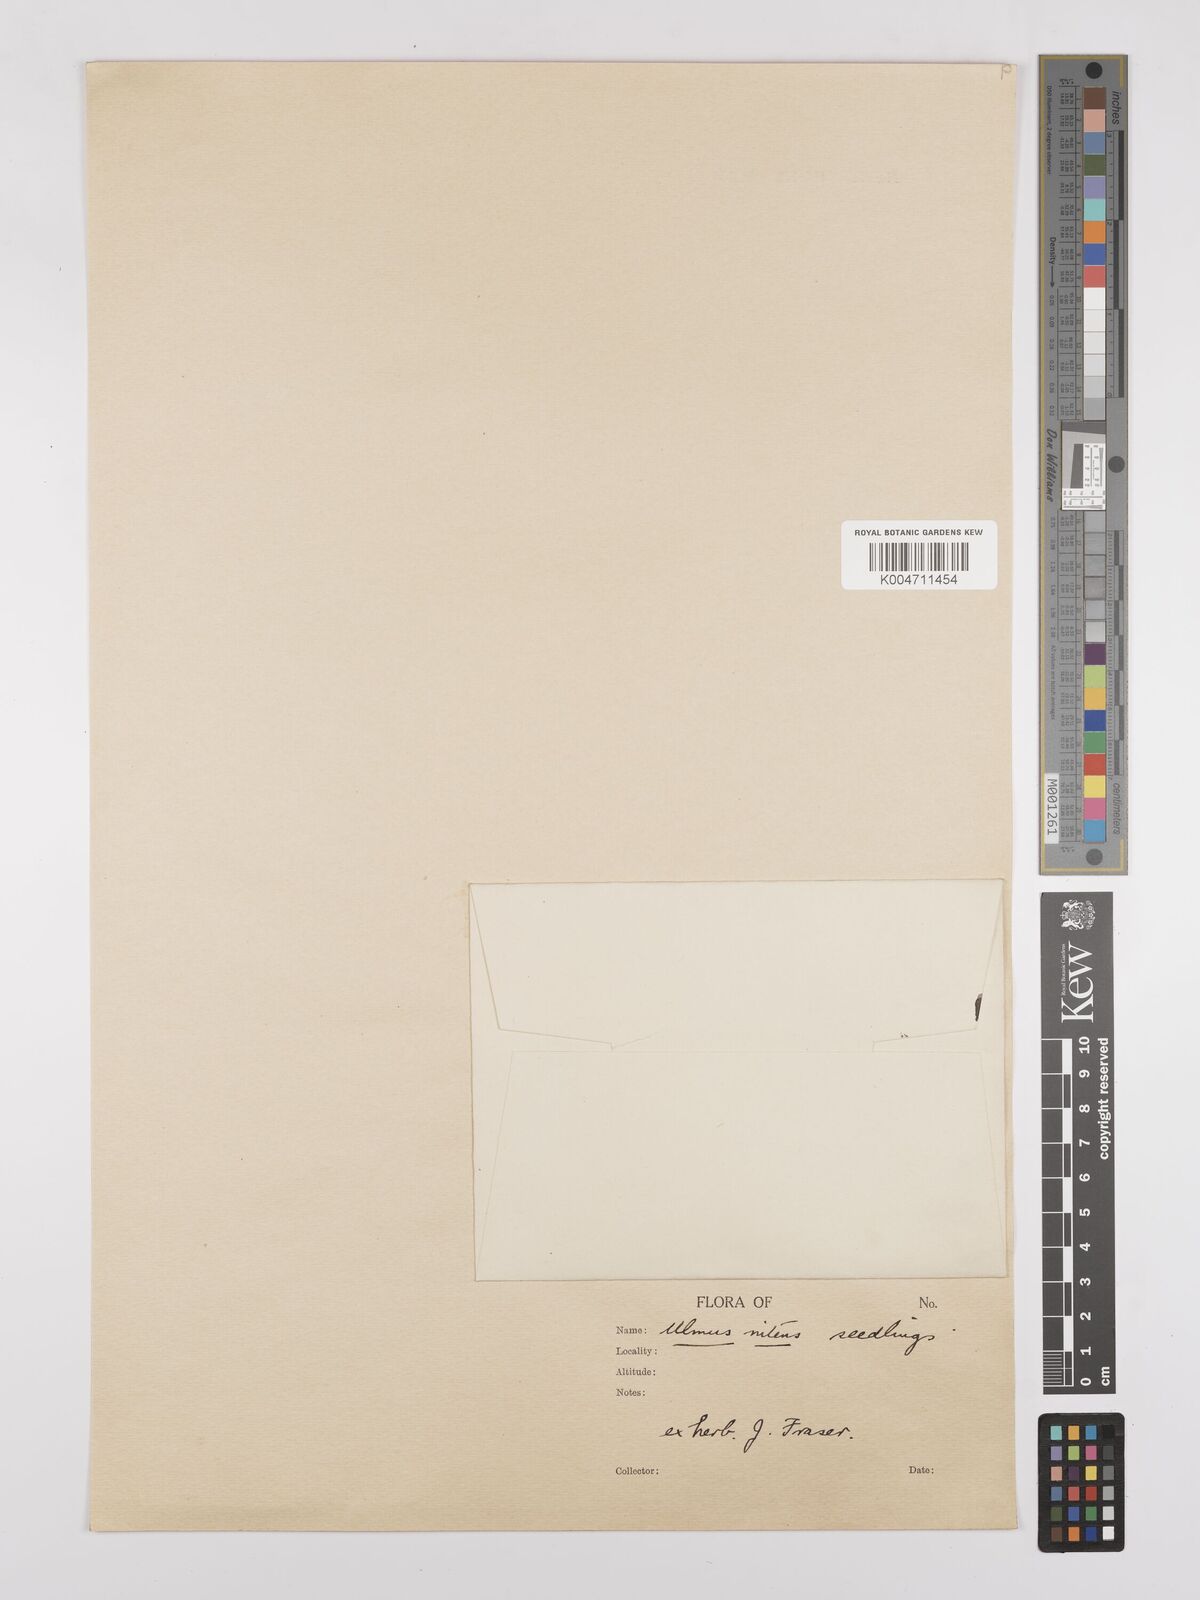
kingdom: Plantae
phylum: Tracheophyta
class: Magnoliopsida
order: Rosales
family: Ulmaceae
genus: Ulmus
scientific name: Ulmus minor
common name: Small-leaved elm
